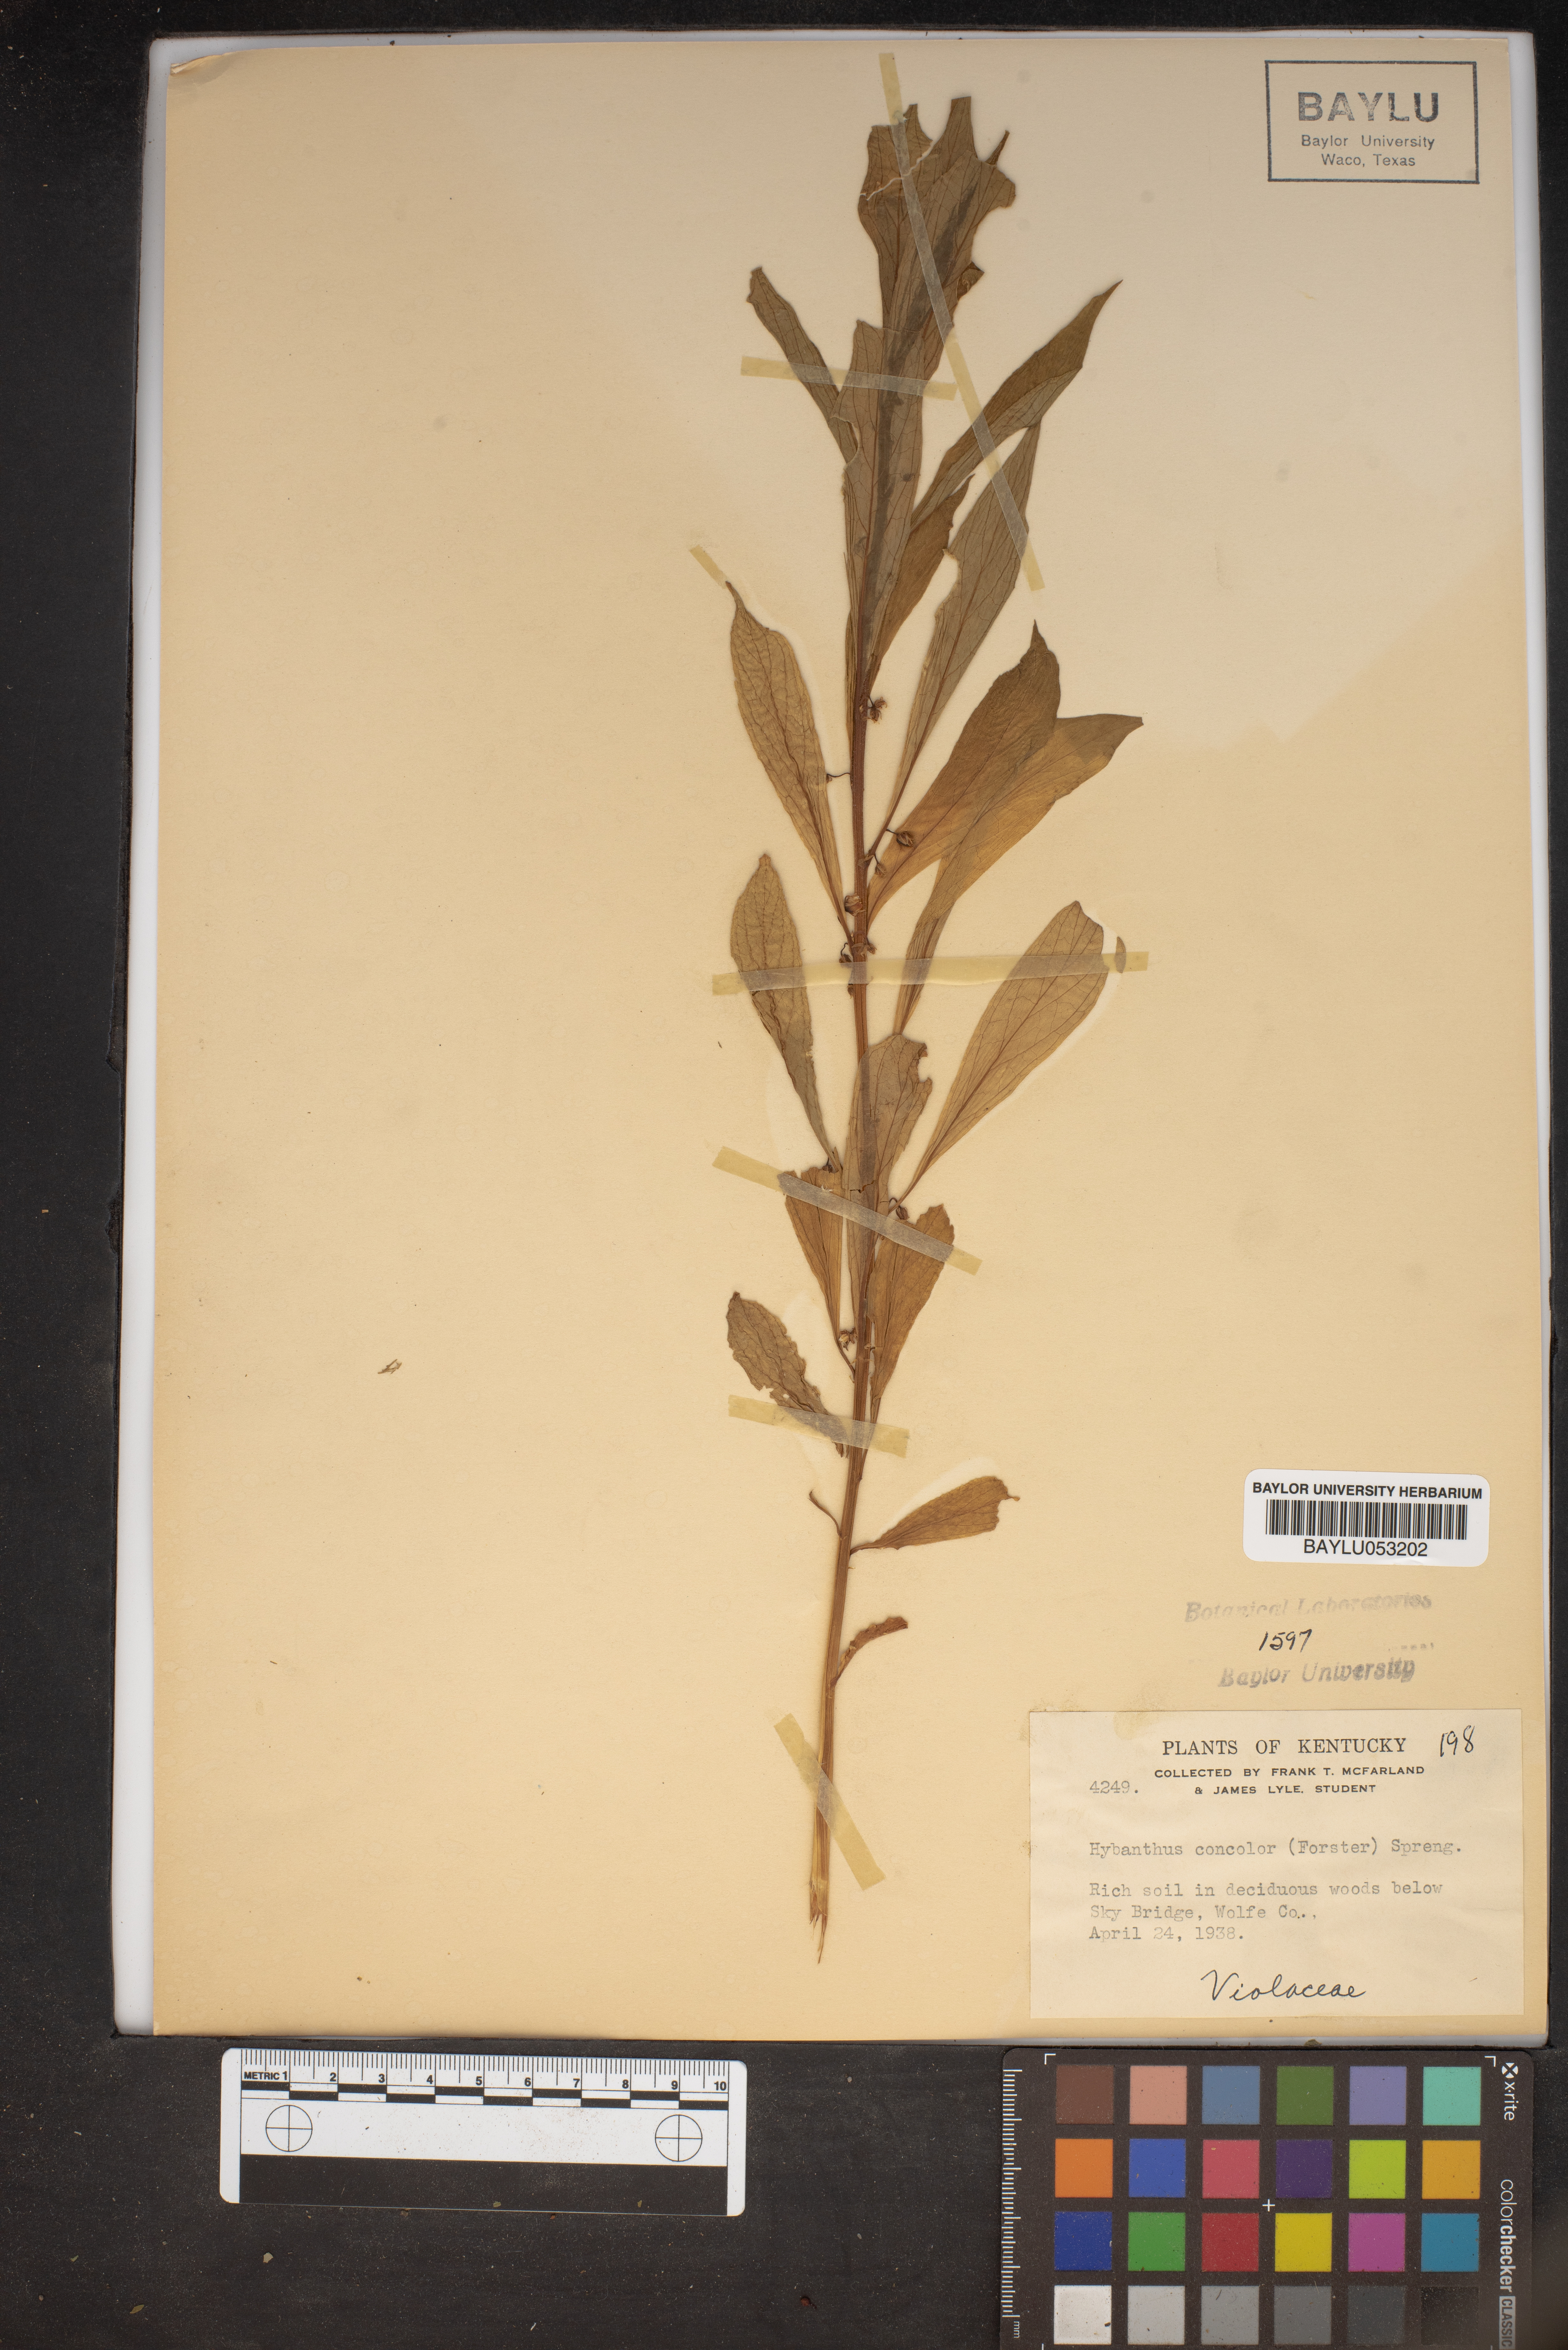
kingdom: Plantae
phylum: Tracheophyta
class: Magnoliopsida
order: Malpighiales
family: Violaceae
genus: Cubelium
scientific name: Cubelium concolor
